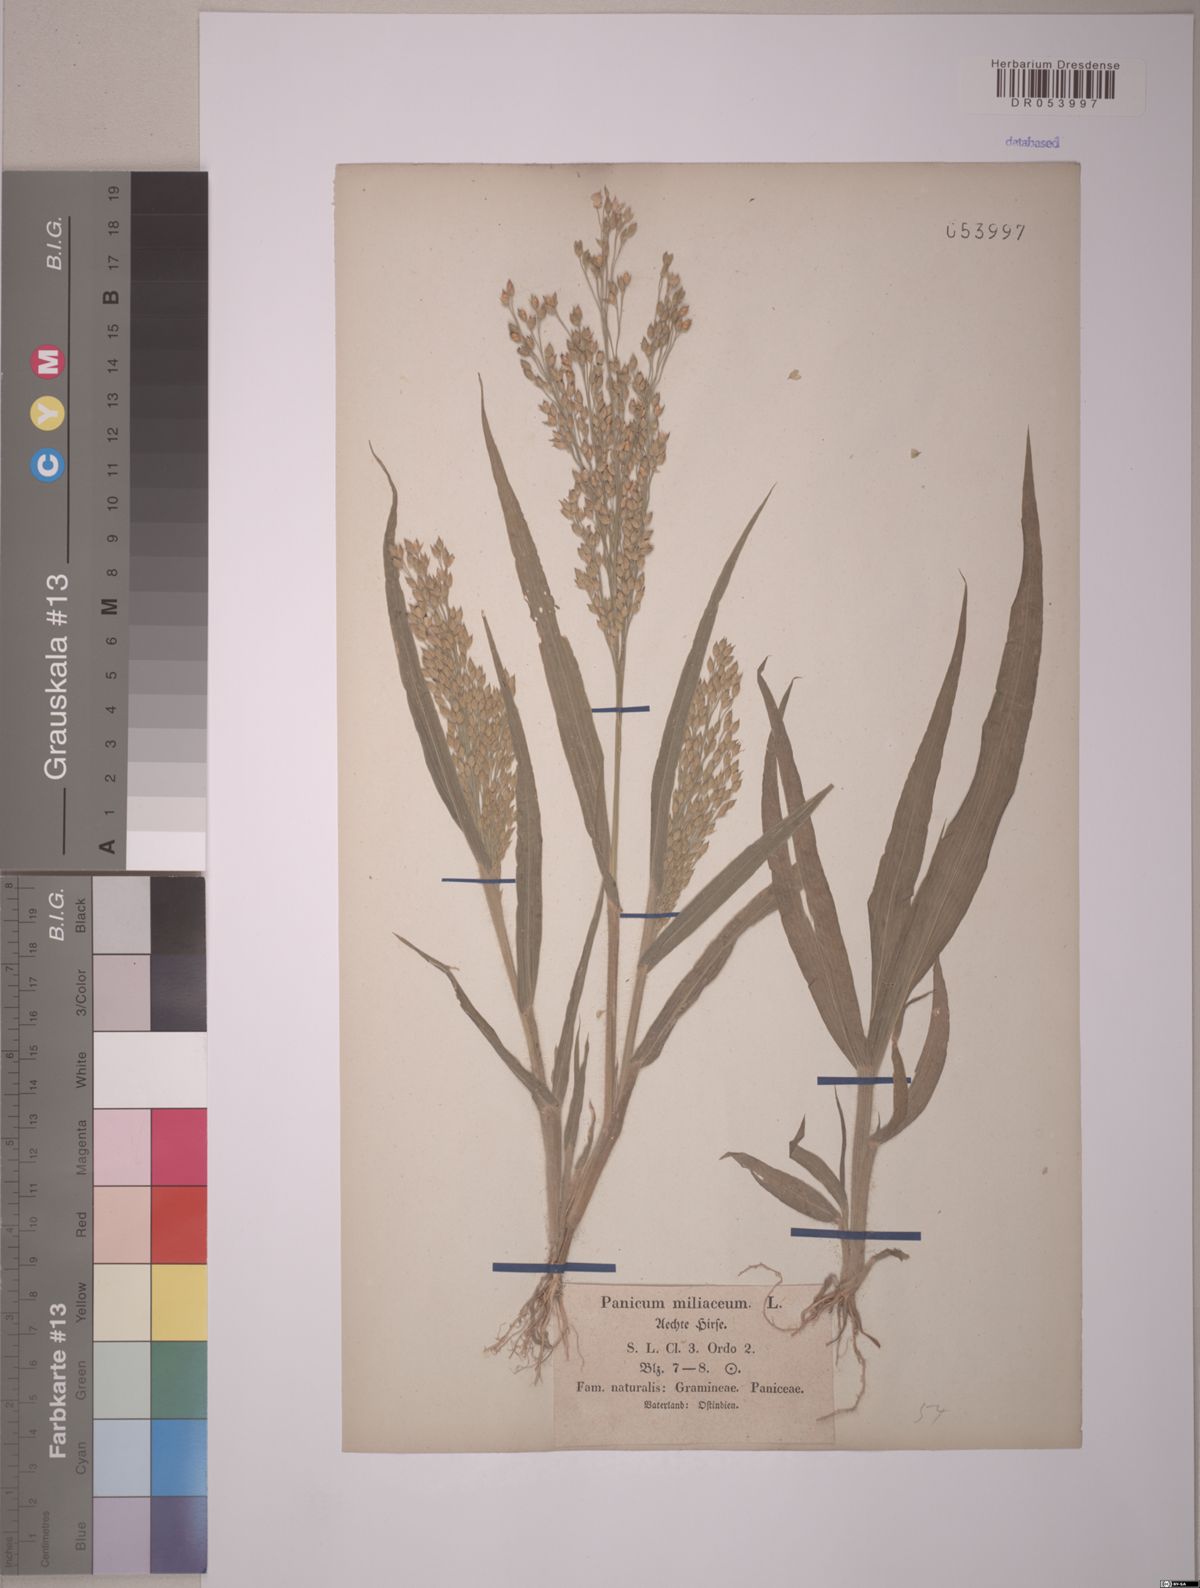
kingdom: Plantae
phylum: Tracheophyta
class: Liliopsida
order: Poales
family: Poaceae
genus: Panicum
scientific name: Panicum miliaceum
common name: Common millet
